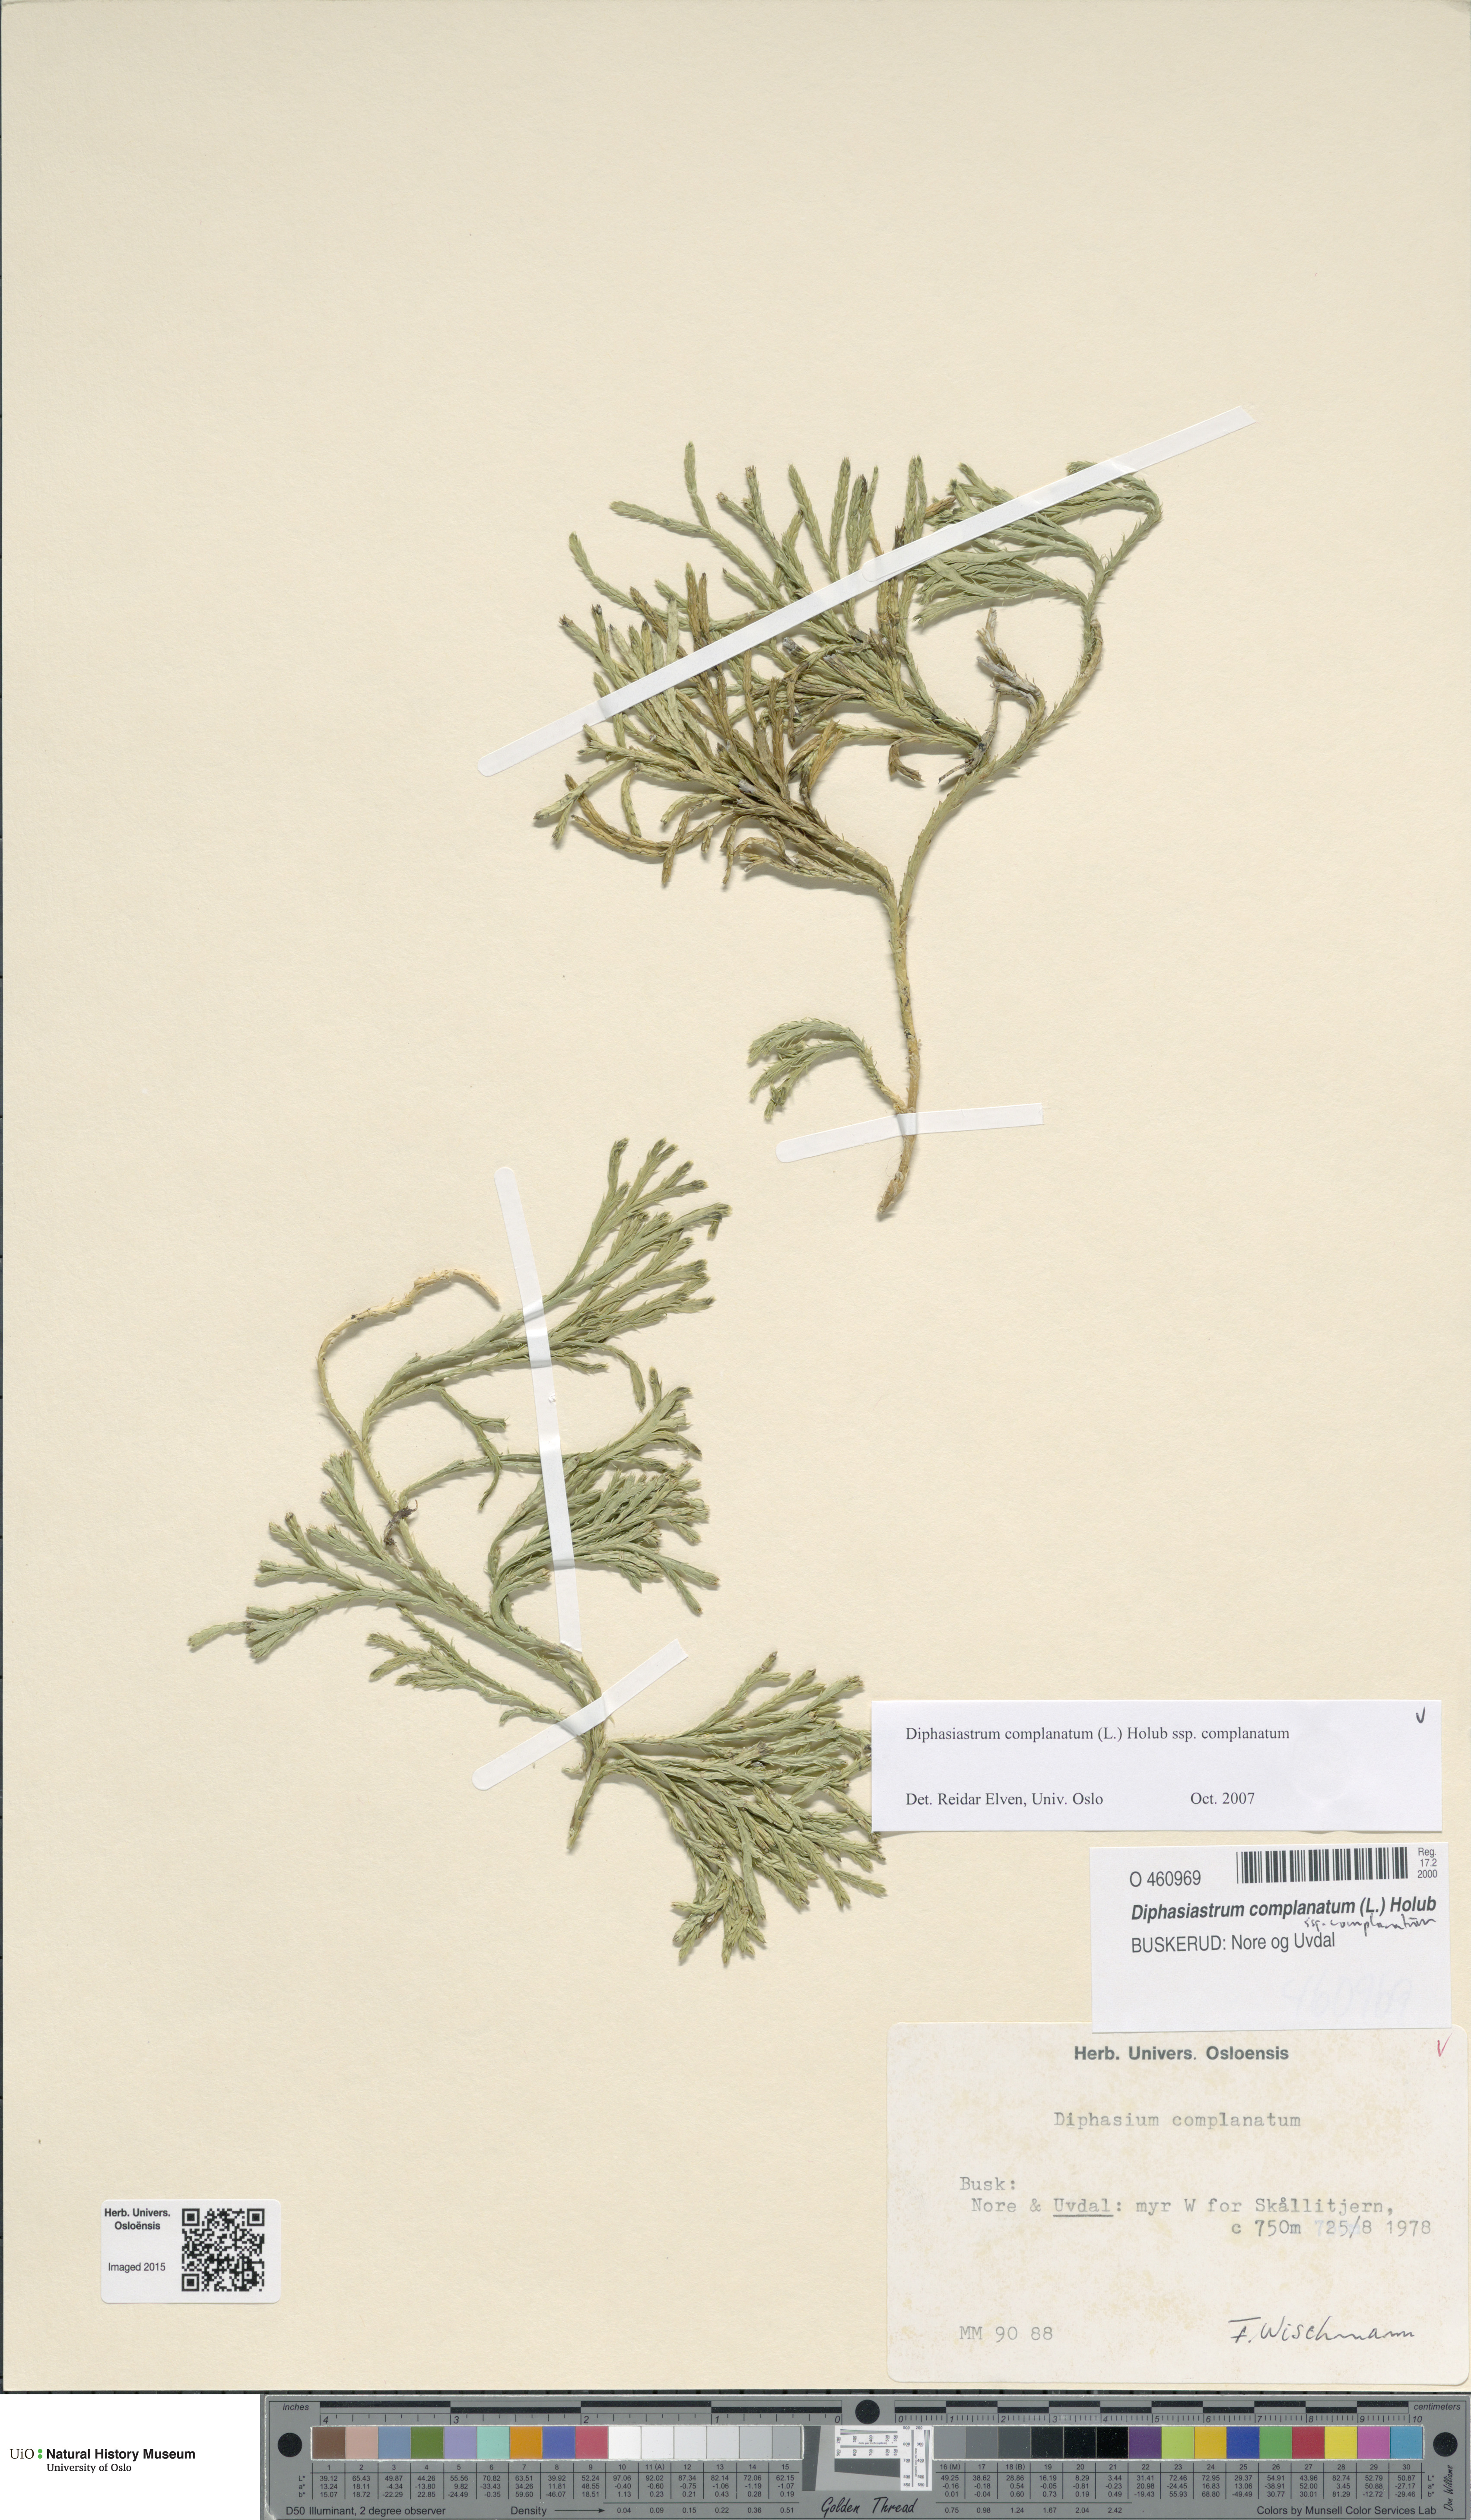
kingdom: Plantae
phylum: Tracheophyta
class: Lycopodiopsida
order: Lycopodiales
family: Lycopodiaceae
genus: Diphasiastrum
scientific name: Diphasiastrum complanatum
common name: Northern running-pine
